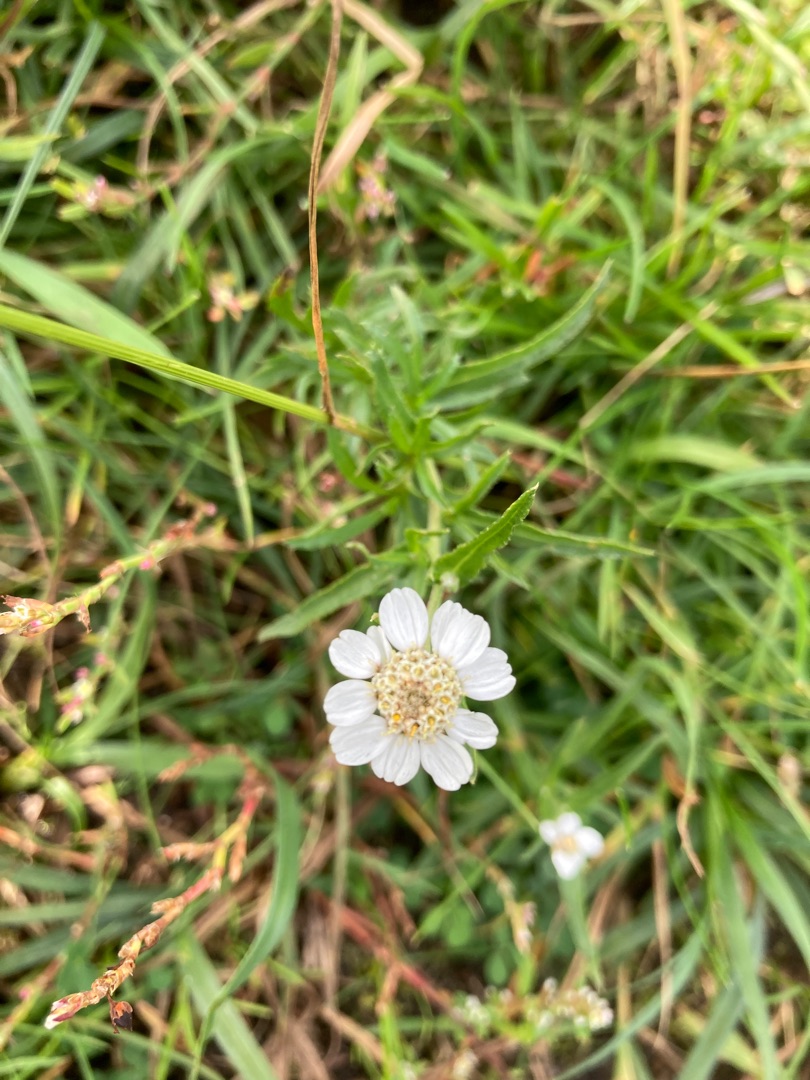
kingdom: Plantae
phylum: Tracheophyta
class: Magnoliopsida
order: Asterales
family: Asteraceae
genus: Achillea
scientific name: Achillea ptarmica
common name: Nyse-røllike
